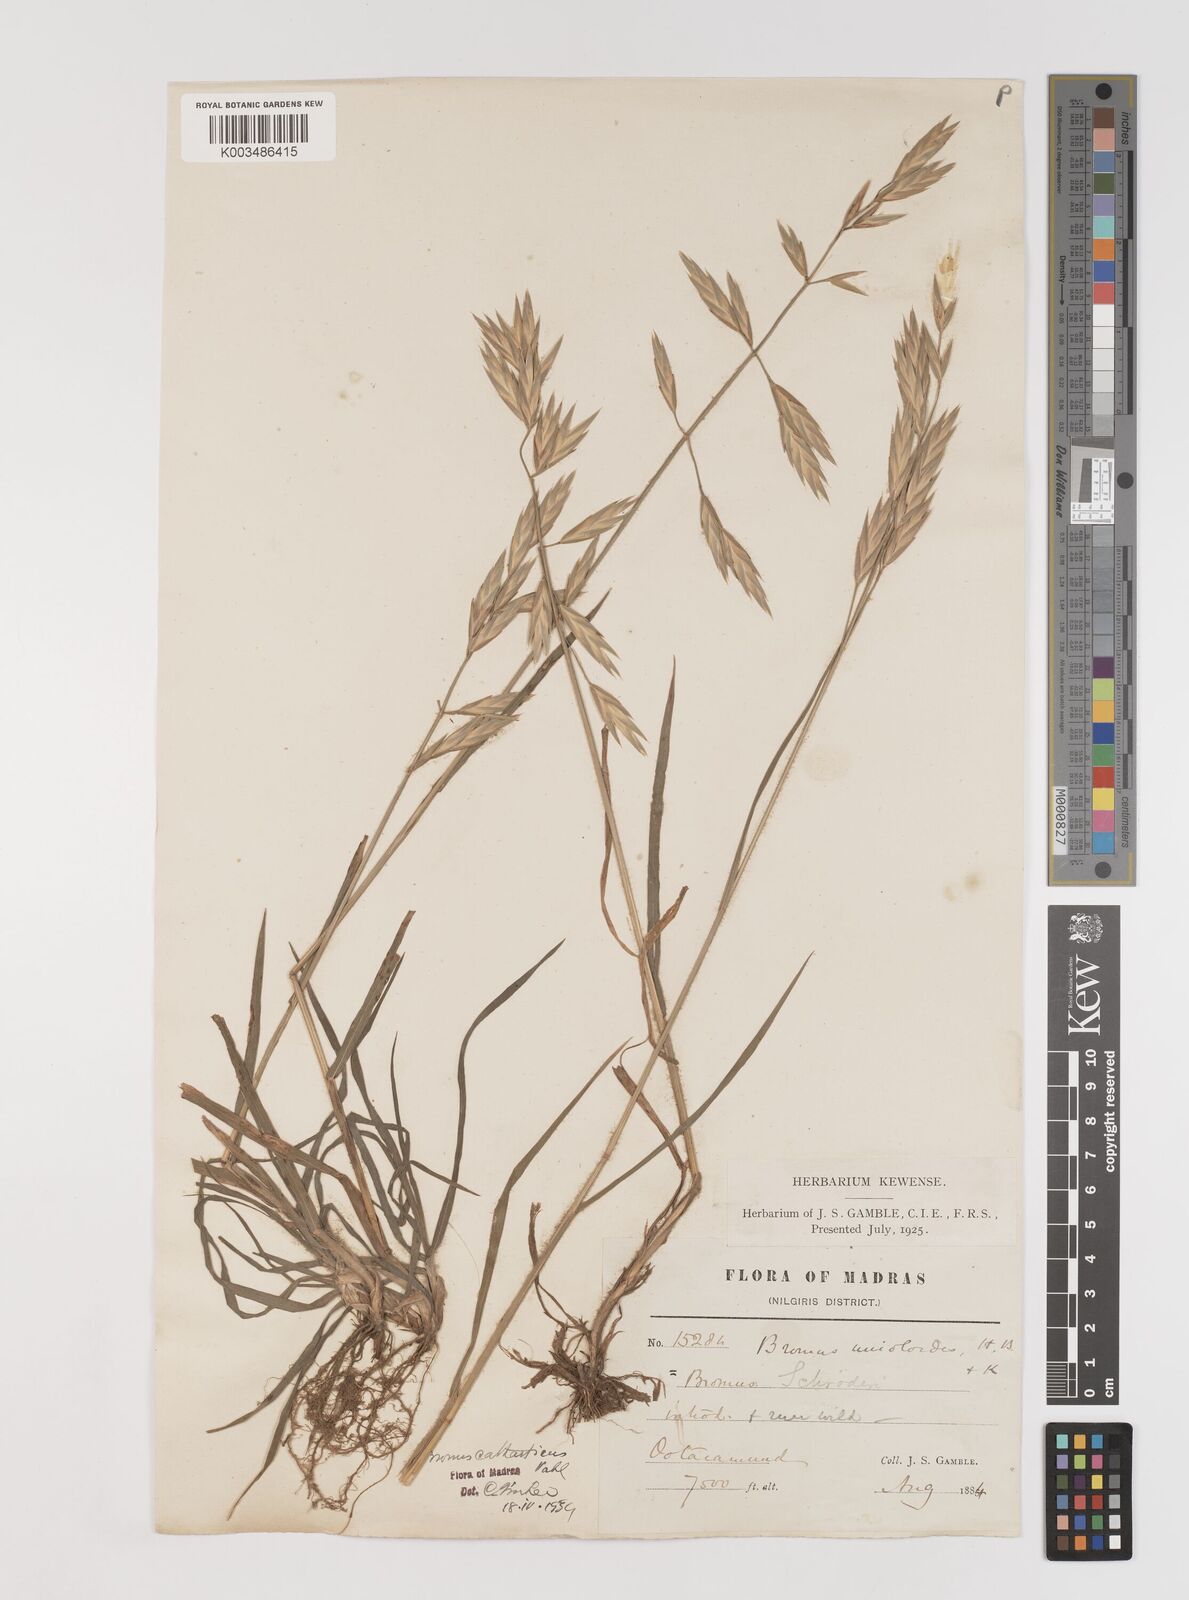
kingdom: Plantae
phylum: Tracheophyta
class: Liliopsida
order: Poales
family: Poaceae
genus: Bromus
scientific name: Bromus catharticus
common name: Rescuegrass
